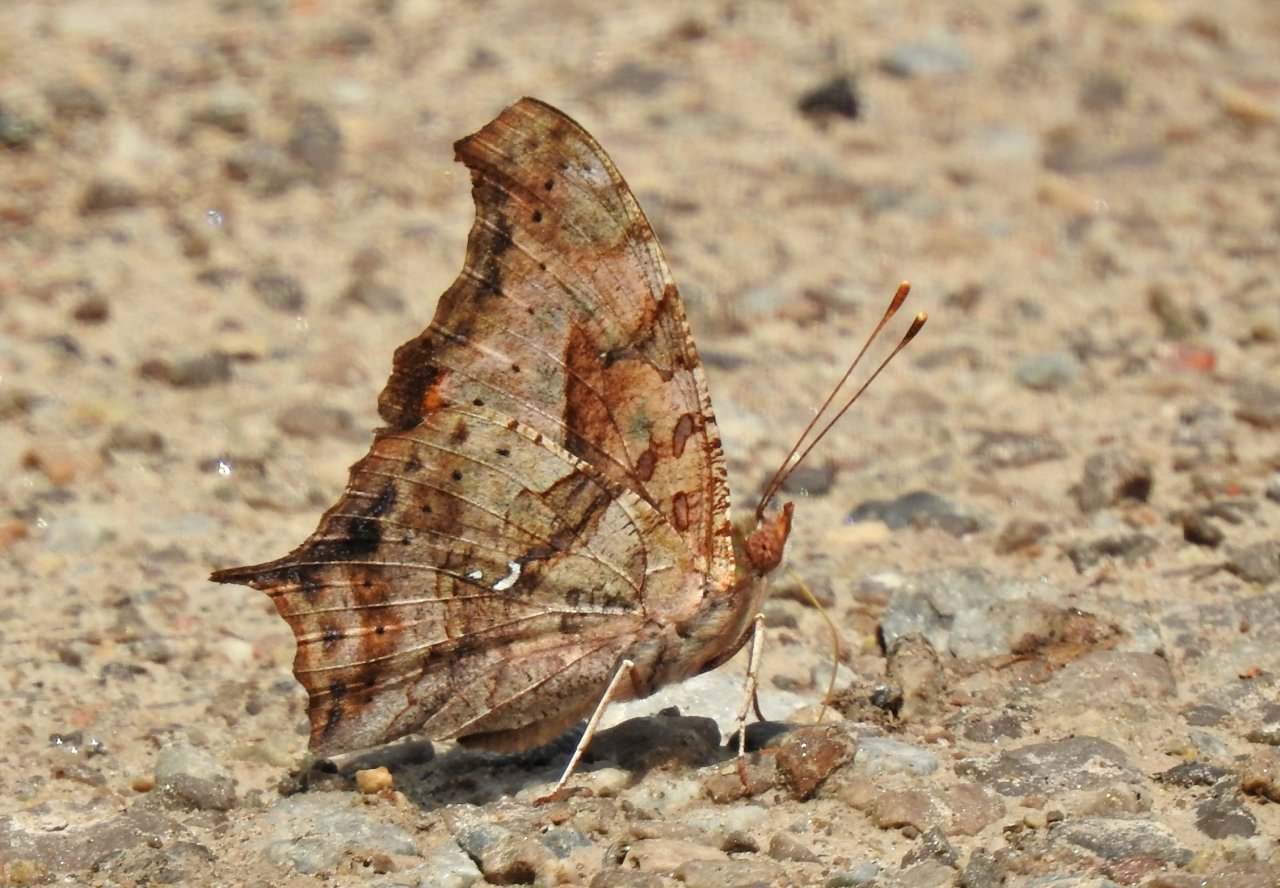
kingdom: Animalia
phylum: Arthropoda
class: Insecta
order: Lepidoptera
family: Nymphalidae
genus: Polygonia
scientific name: Polygonia interrogationis
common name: Question Mark
